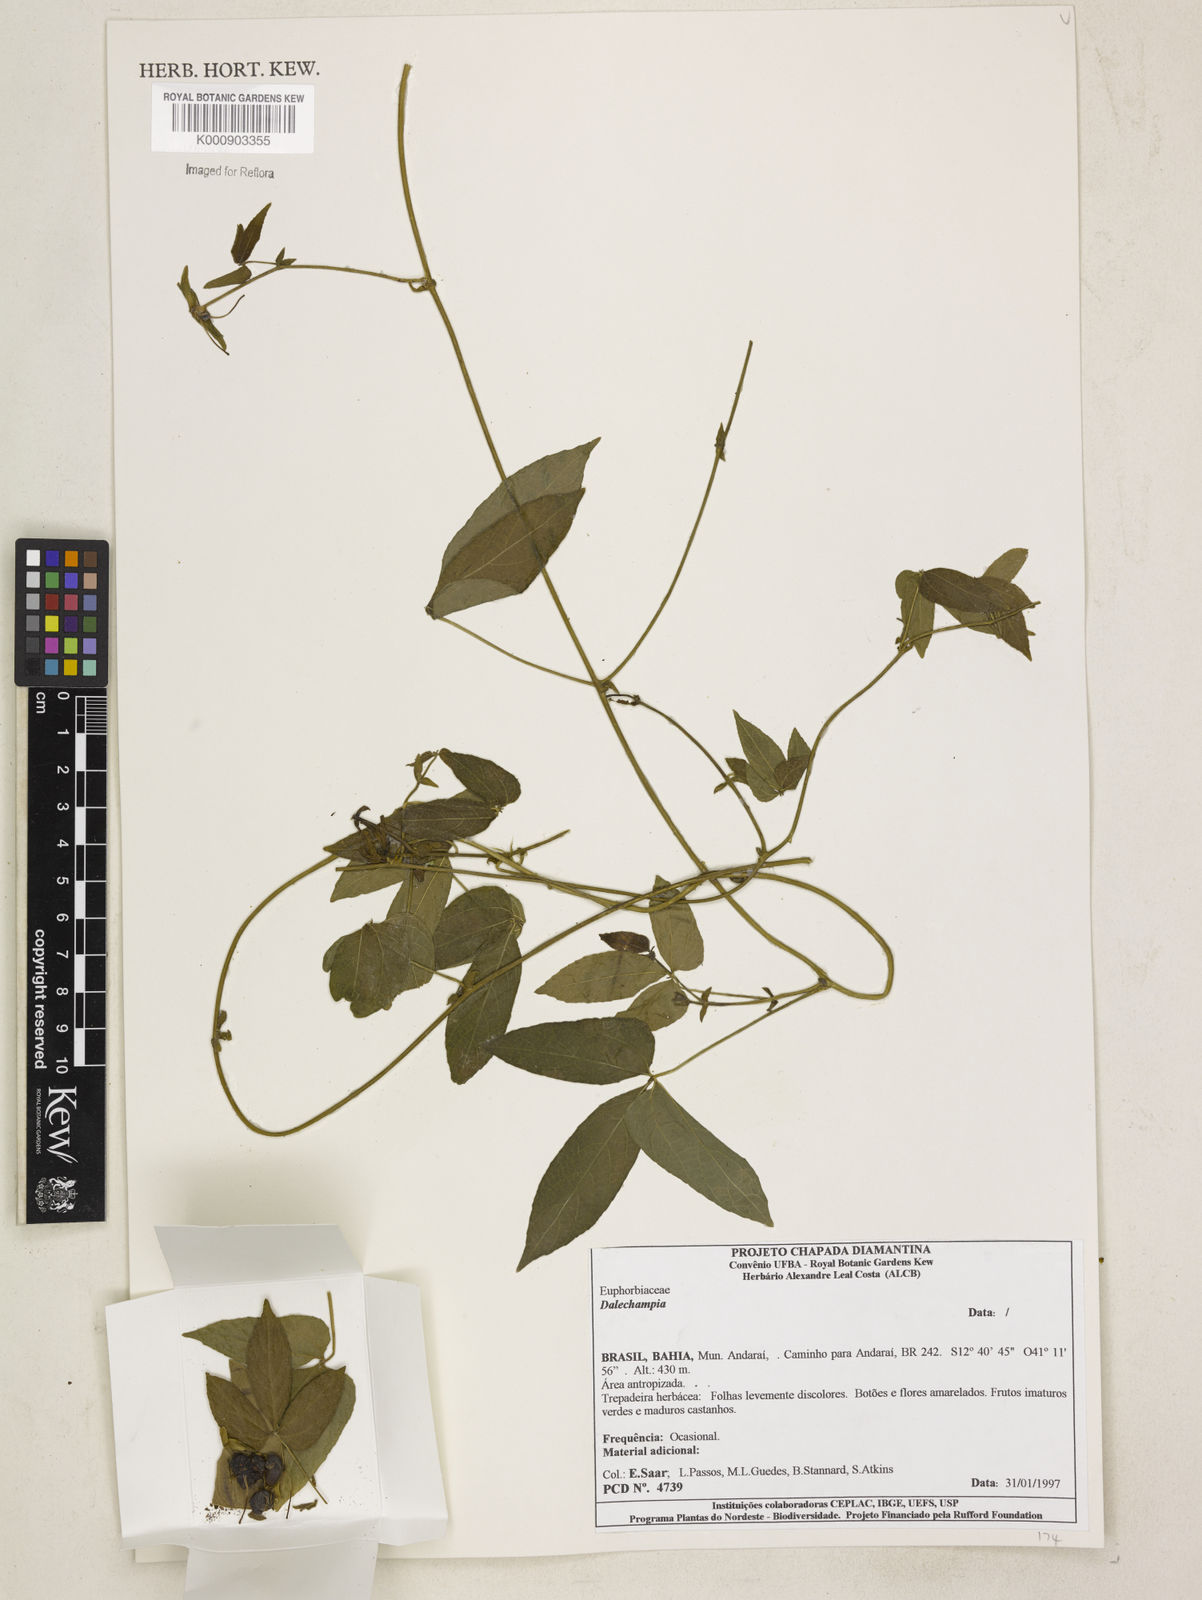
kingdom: Plantae
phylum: Tracheophyta
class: Magnoliopsida
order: Malpighiales
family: Euphorbiaceae
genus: Dalechampia
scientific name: Dalechampia
